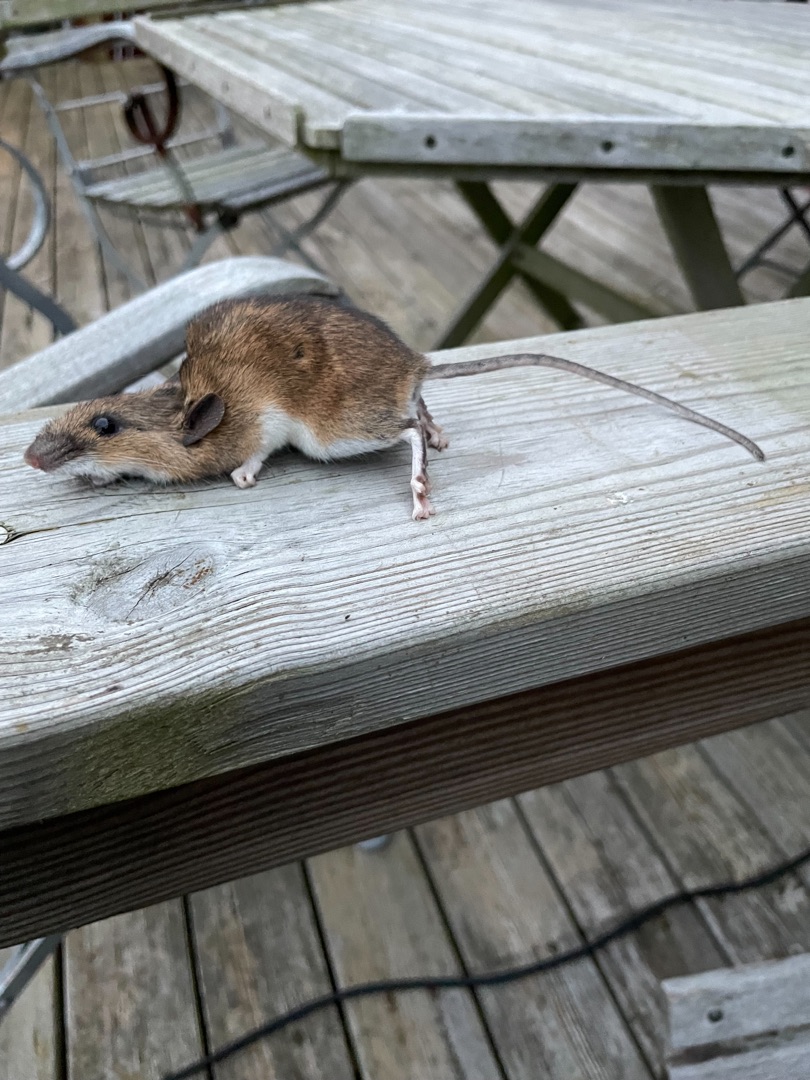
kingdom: Animalia
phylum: Chordata
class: Mammalia
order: Rodentia
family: Muridae
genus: Apodemus
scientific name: Apodemus flavicollis
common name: Halsbåndmus
